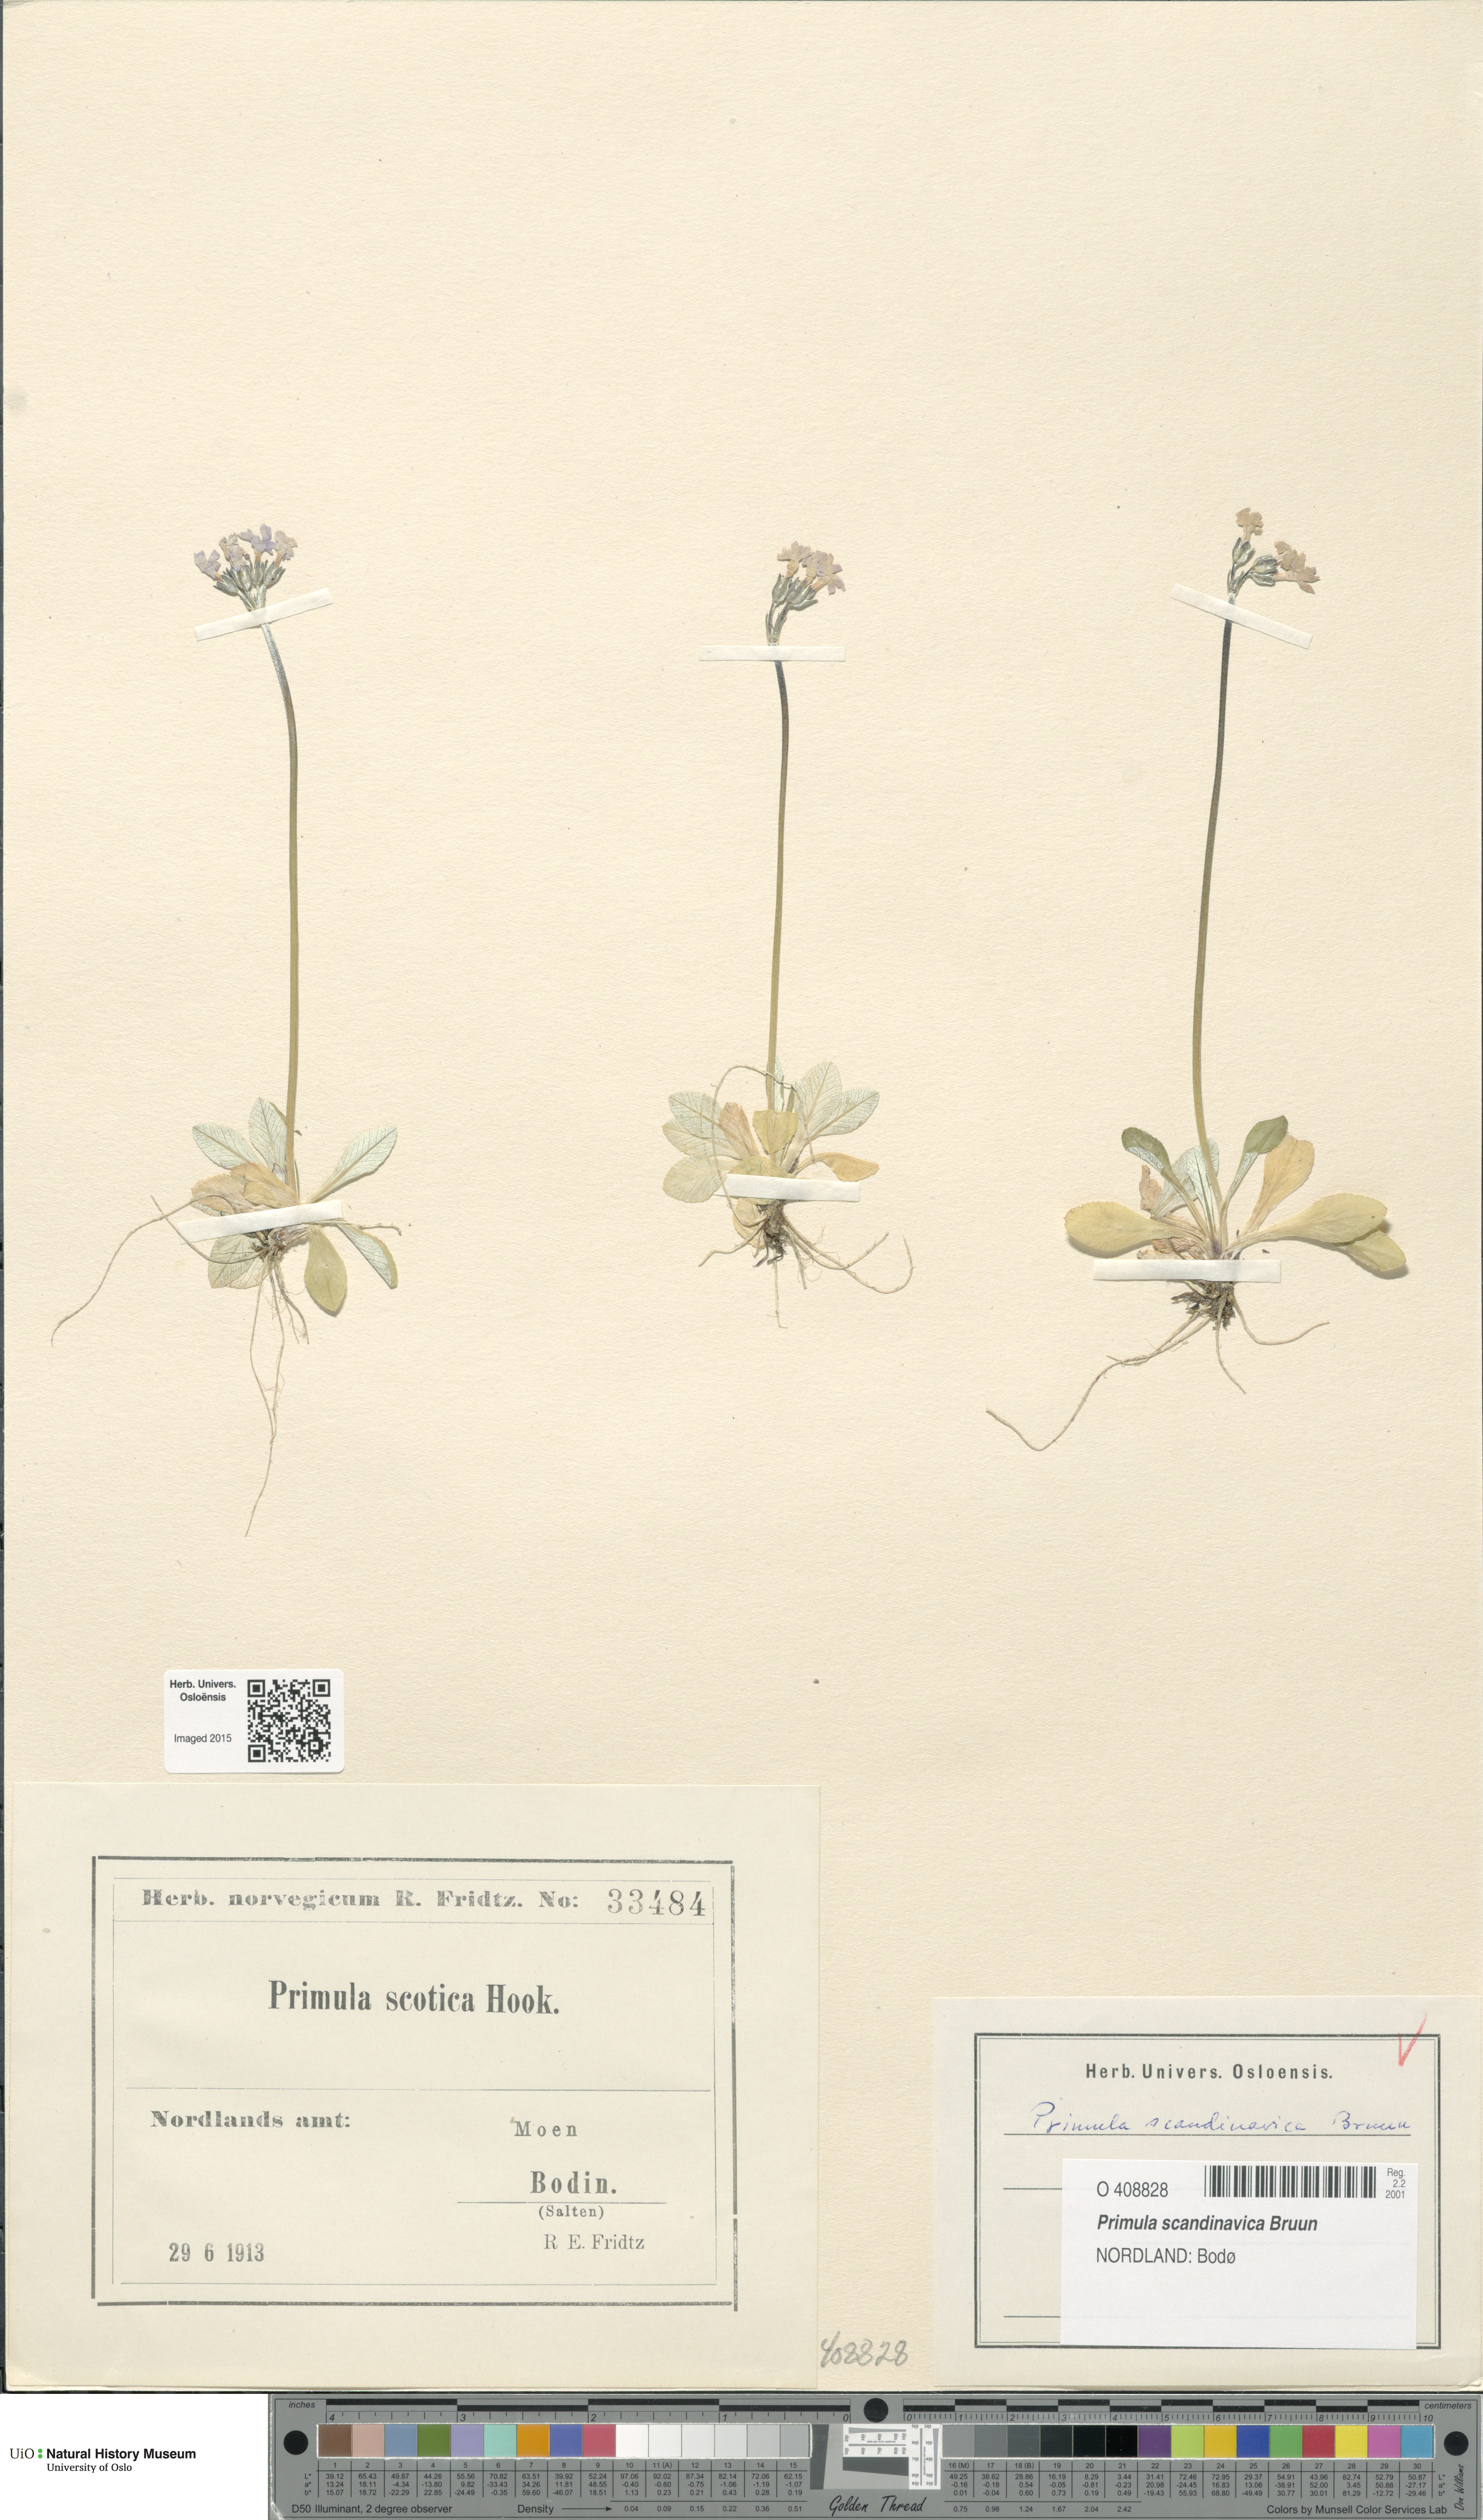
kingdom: Plantae
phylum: Tracheophyta
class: Magnoliopsida
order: Ericales
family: Primulaceae
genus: Primula
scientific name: Primula scandinavica
